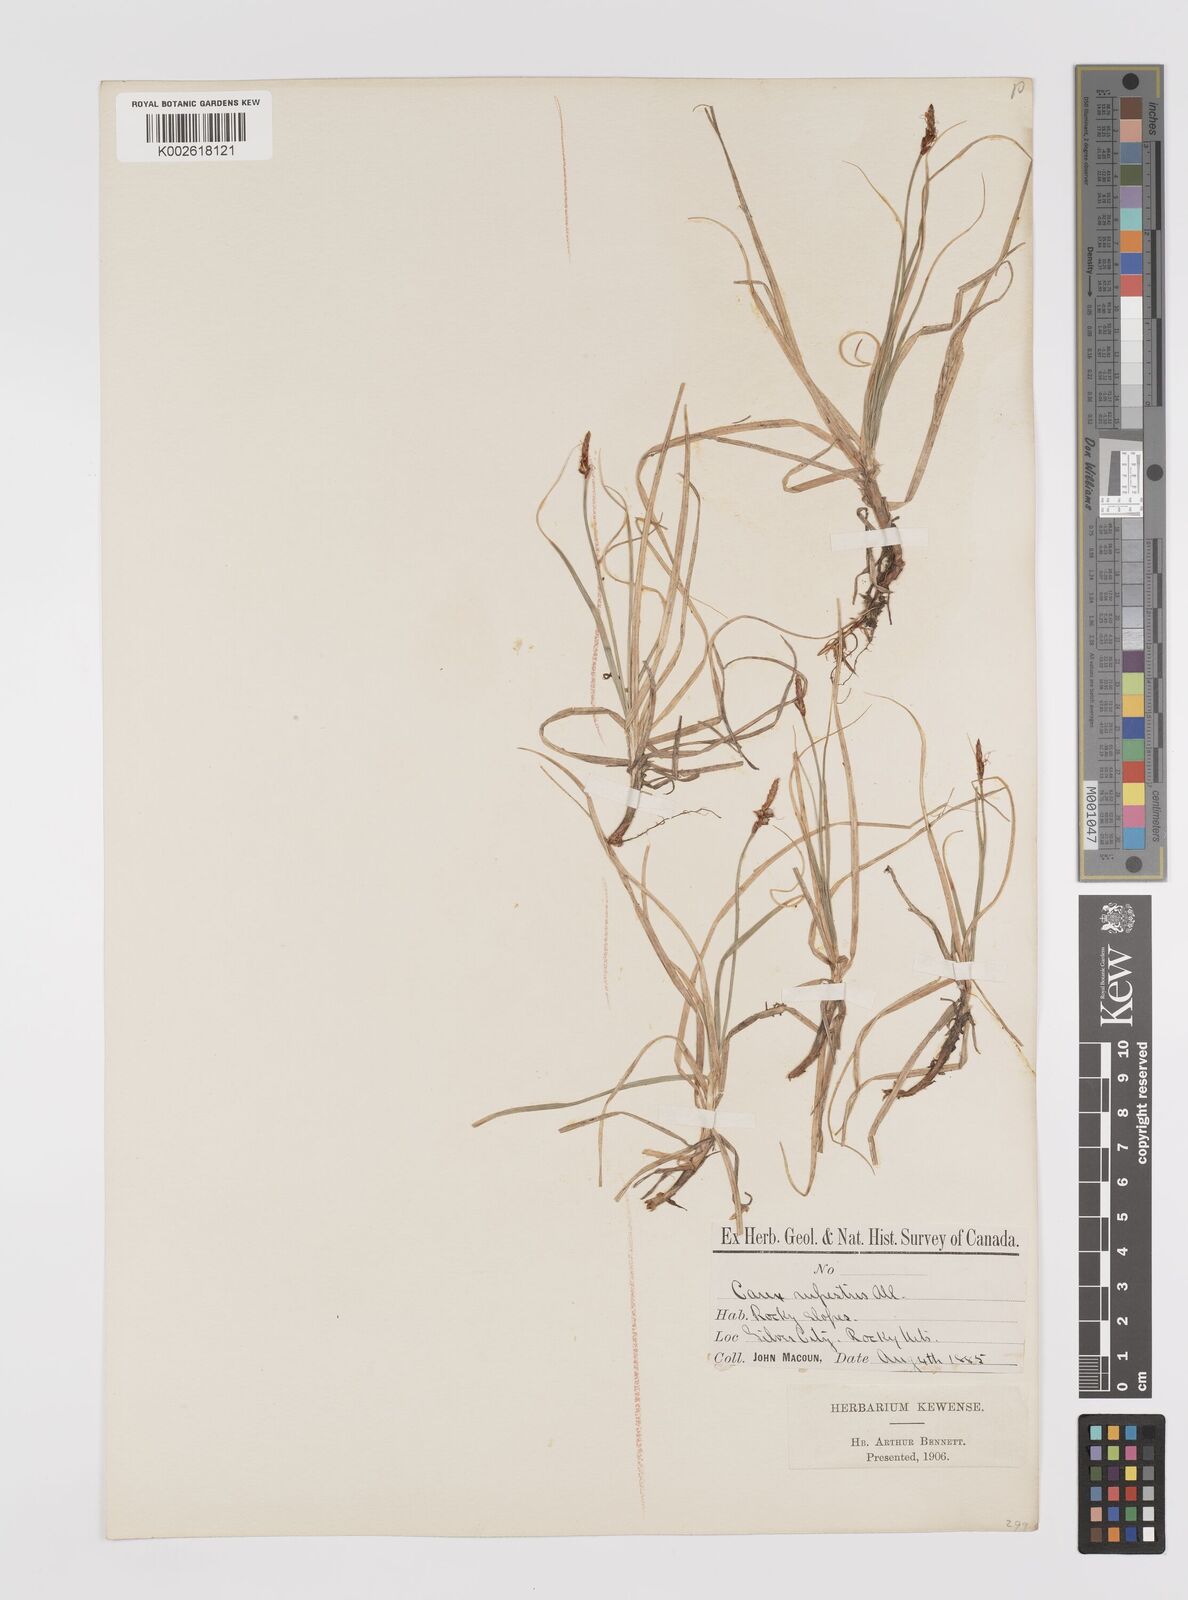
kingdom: Plantae
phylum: Tracheophyta
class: Liliopsida
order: Poales
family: Cyperaceae
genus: Carex
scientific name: Carex rupestris
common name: Rock sedge
